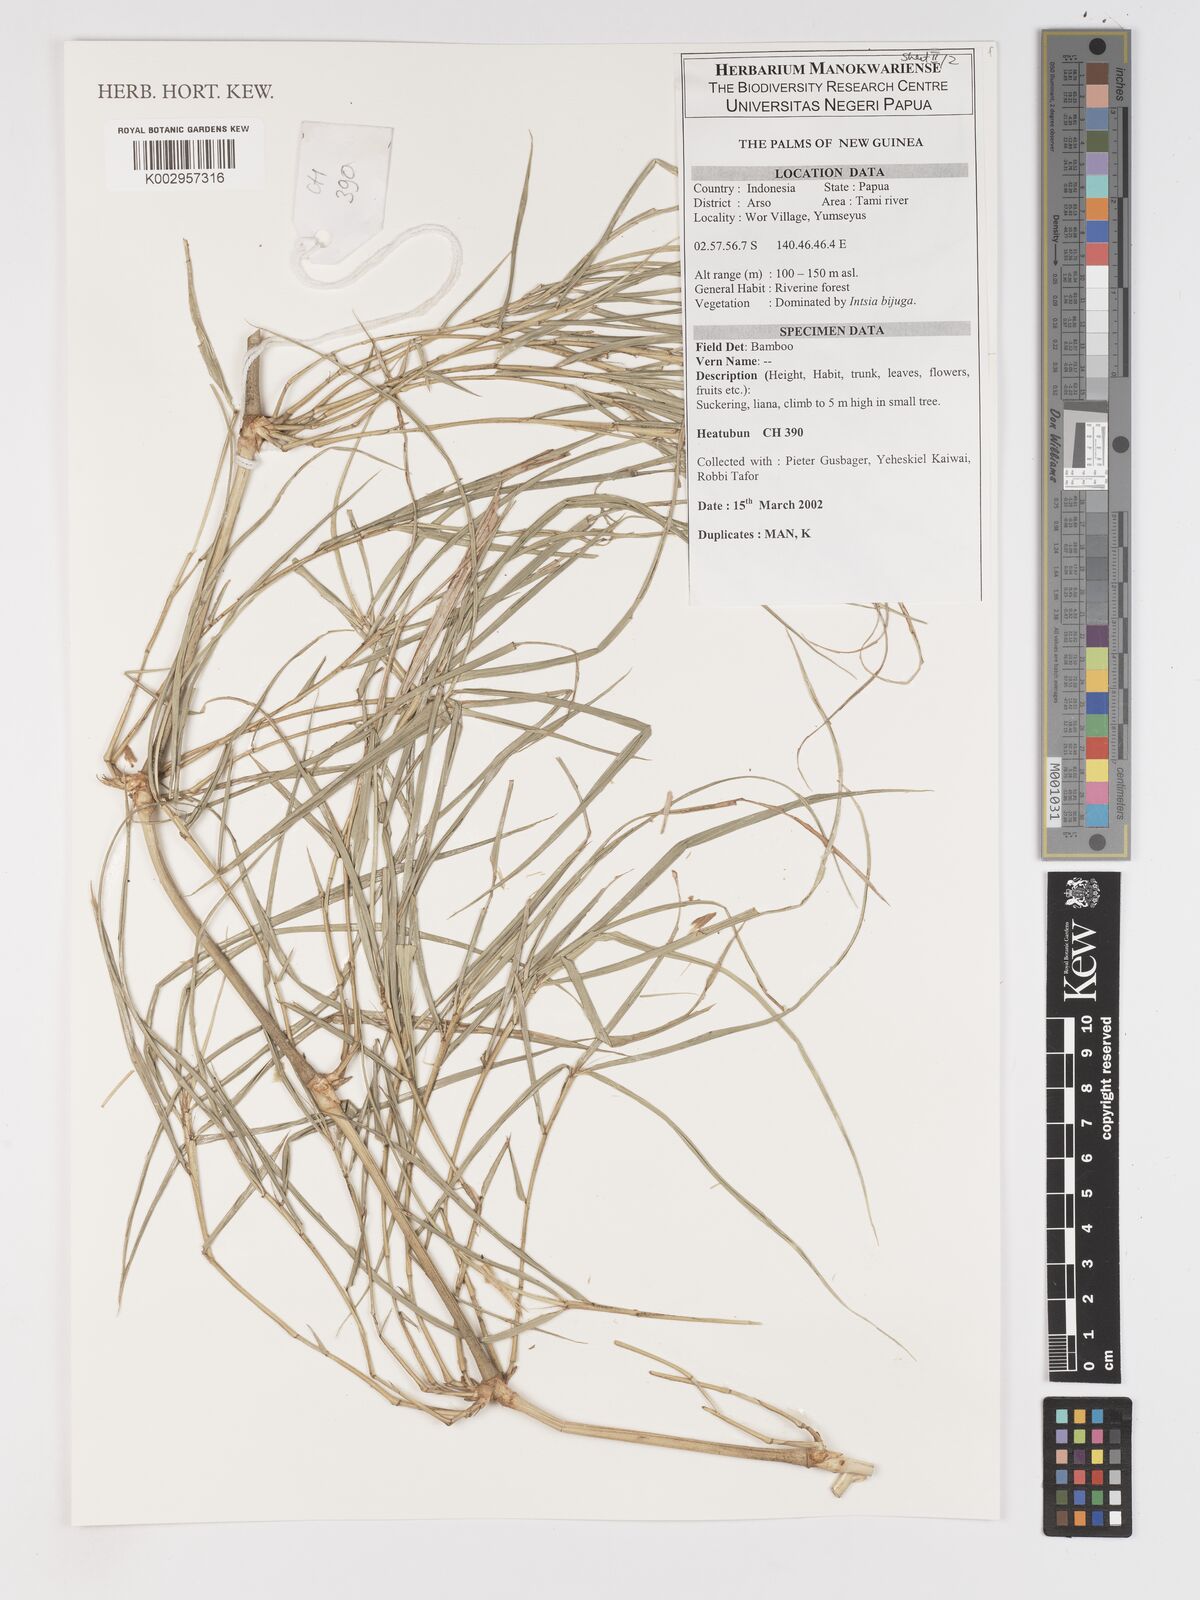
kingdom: Plantae
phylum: Tracheophyta
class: Liliopsida
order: Poales
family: Poaceae
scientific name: Poaceae
